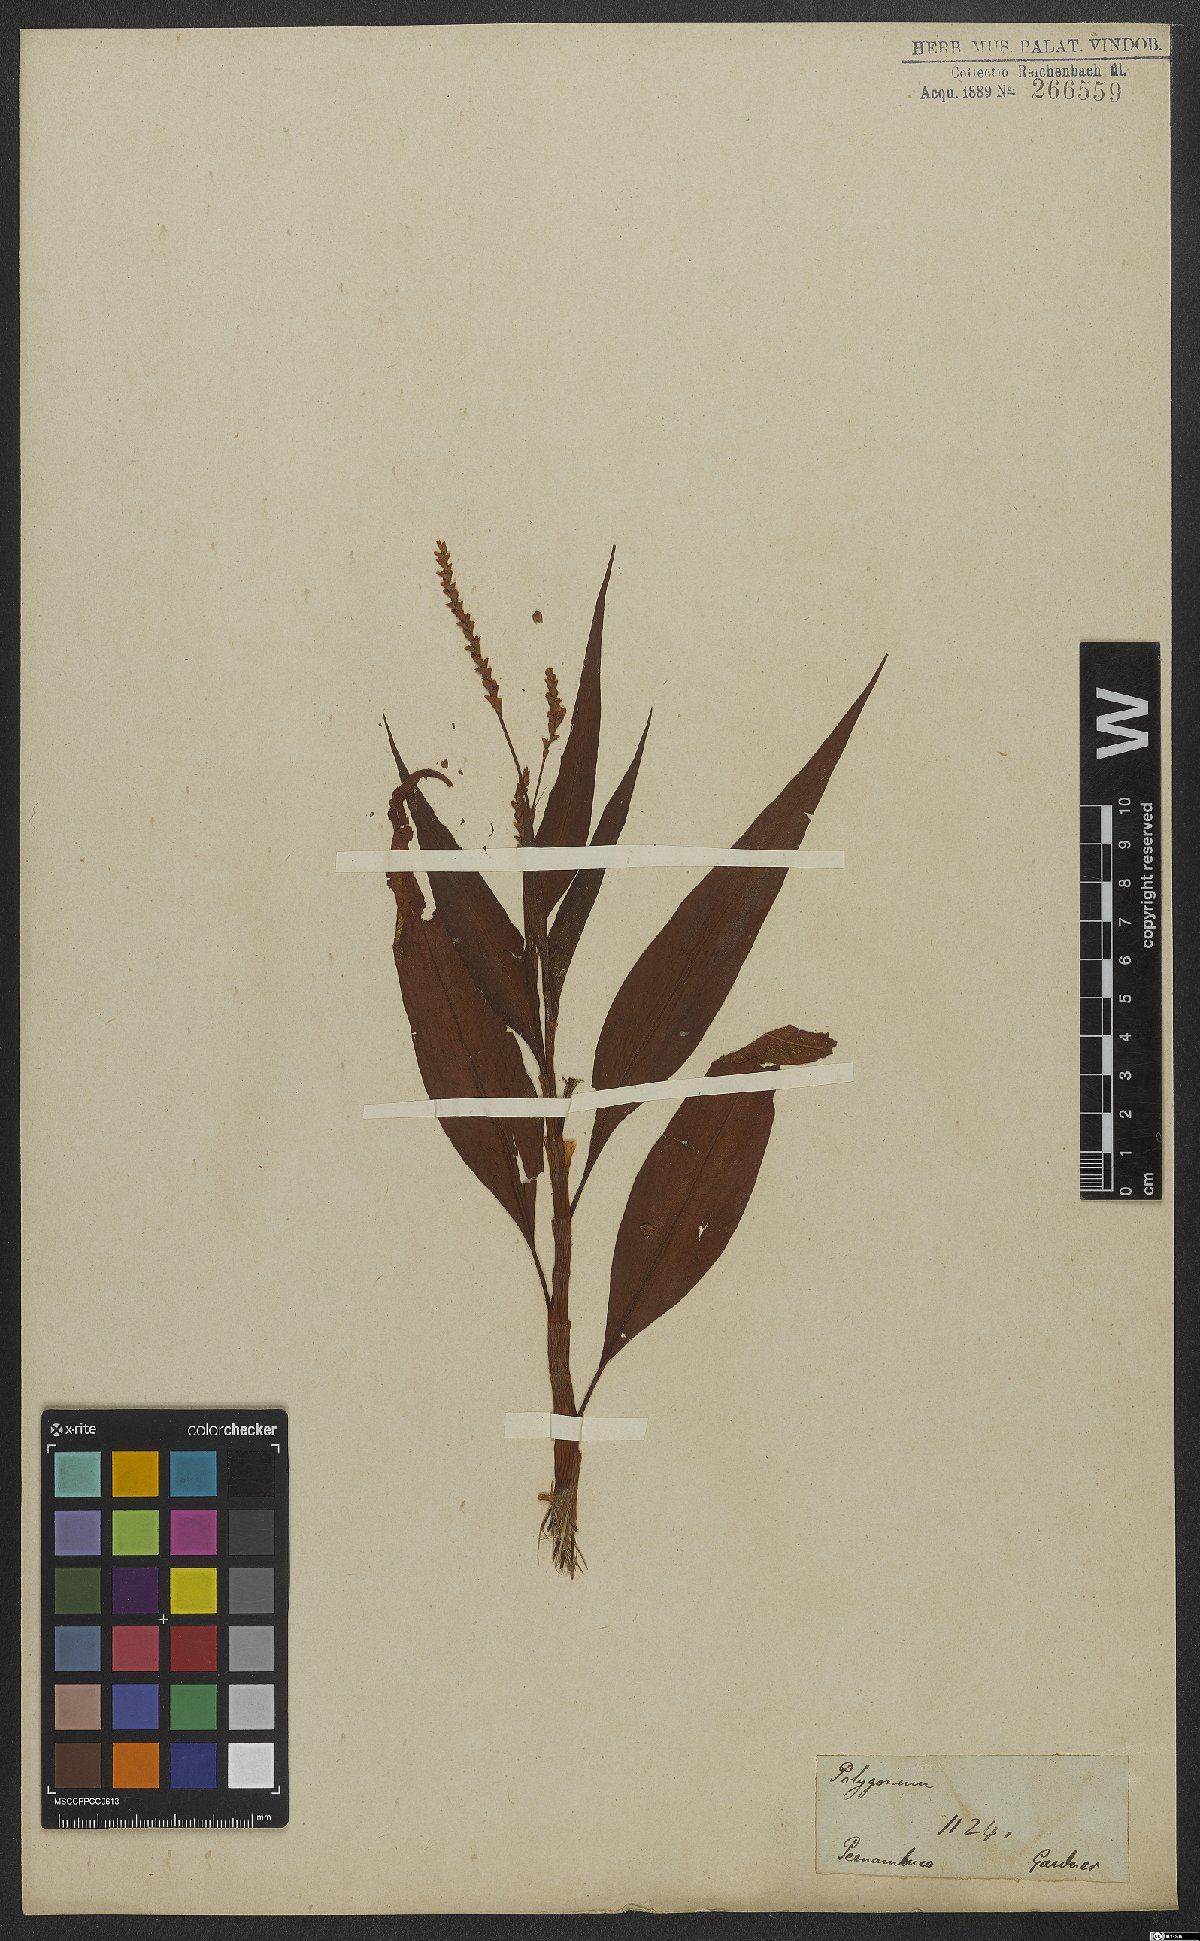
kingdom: Plantae
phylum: Tracheophyta
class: Magnoliopsida
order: Caryophyllales
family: Polygonaceae
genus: Persicaria
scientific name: Persicaria ferruginea
